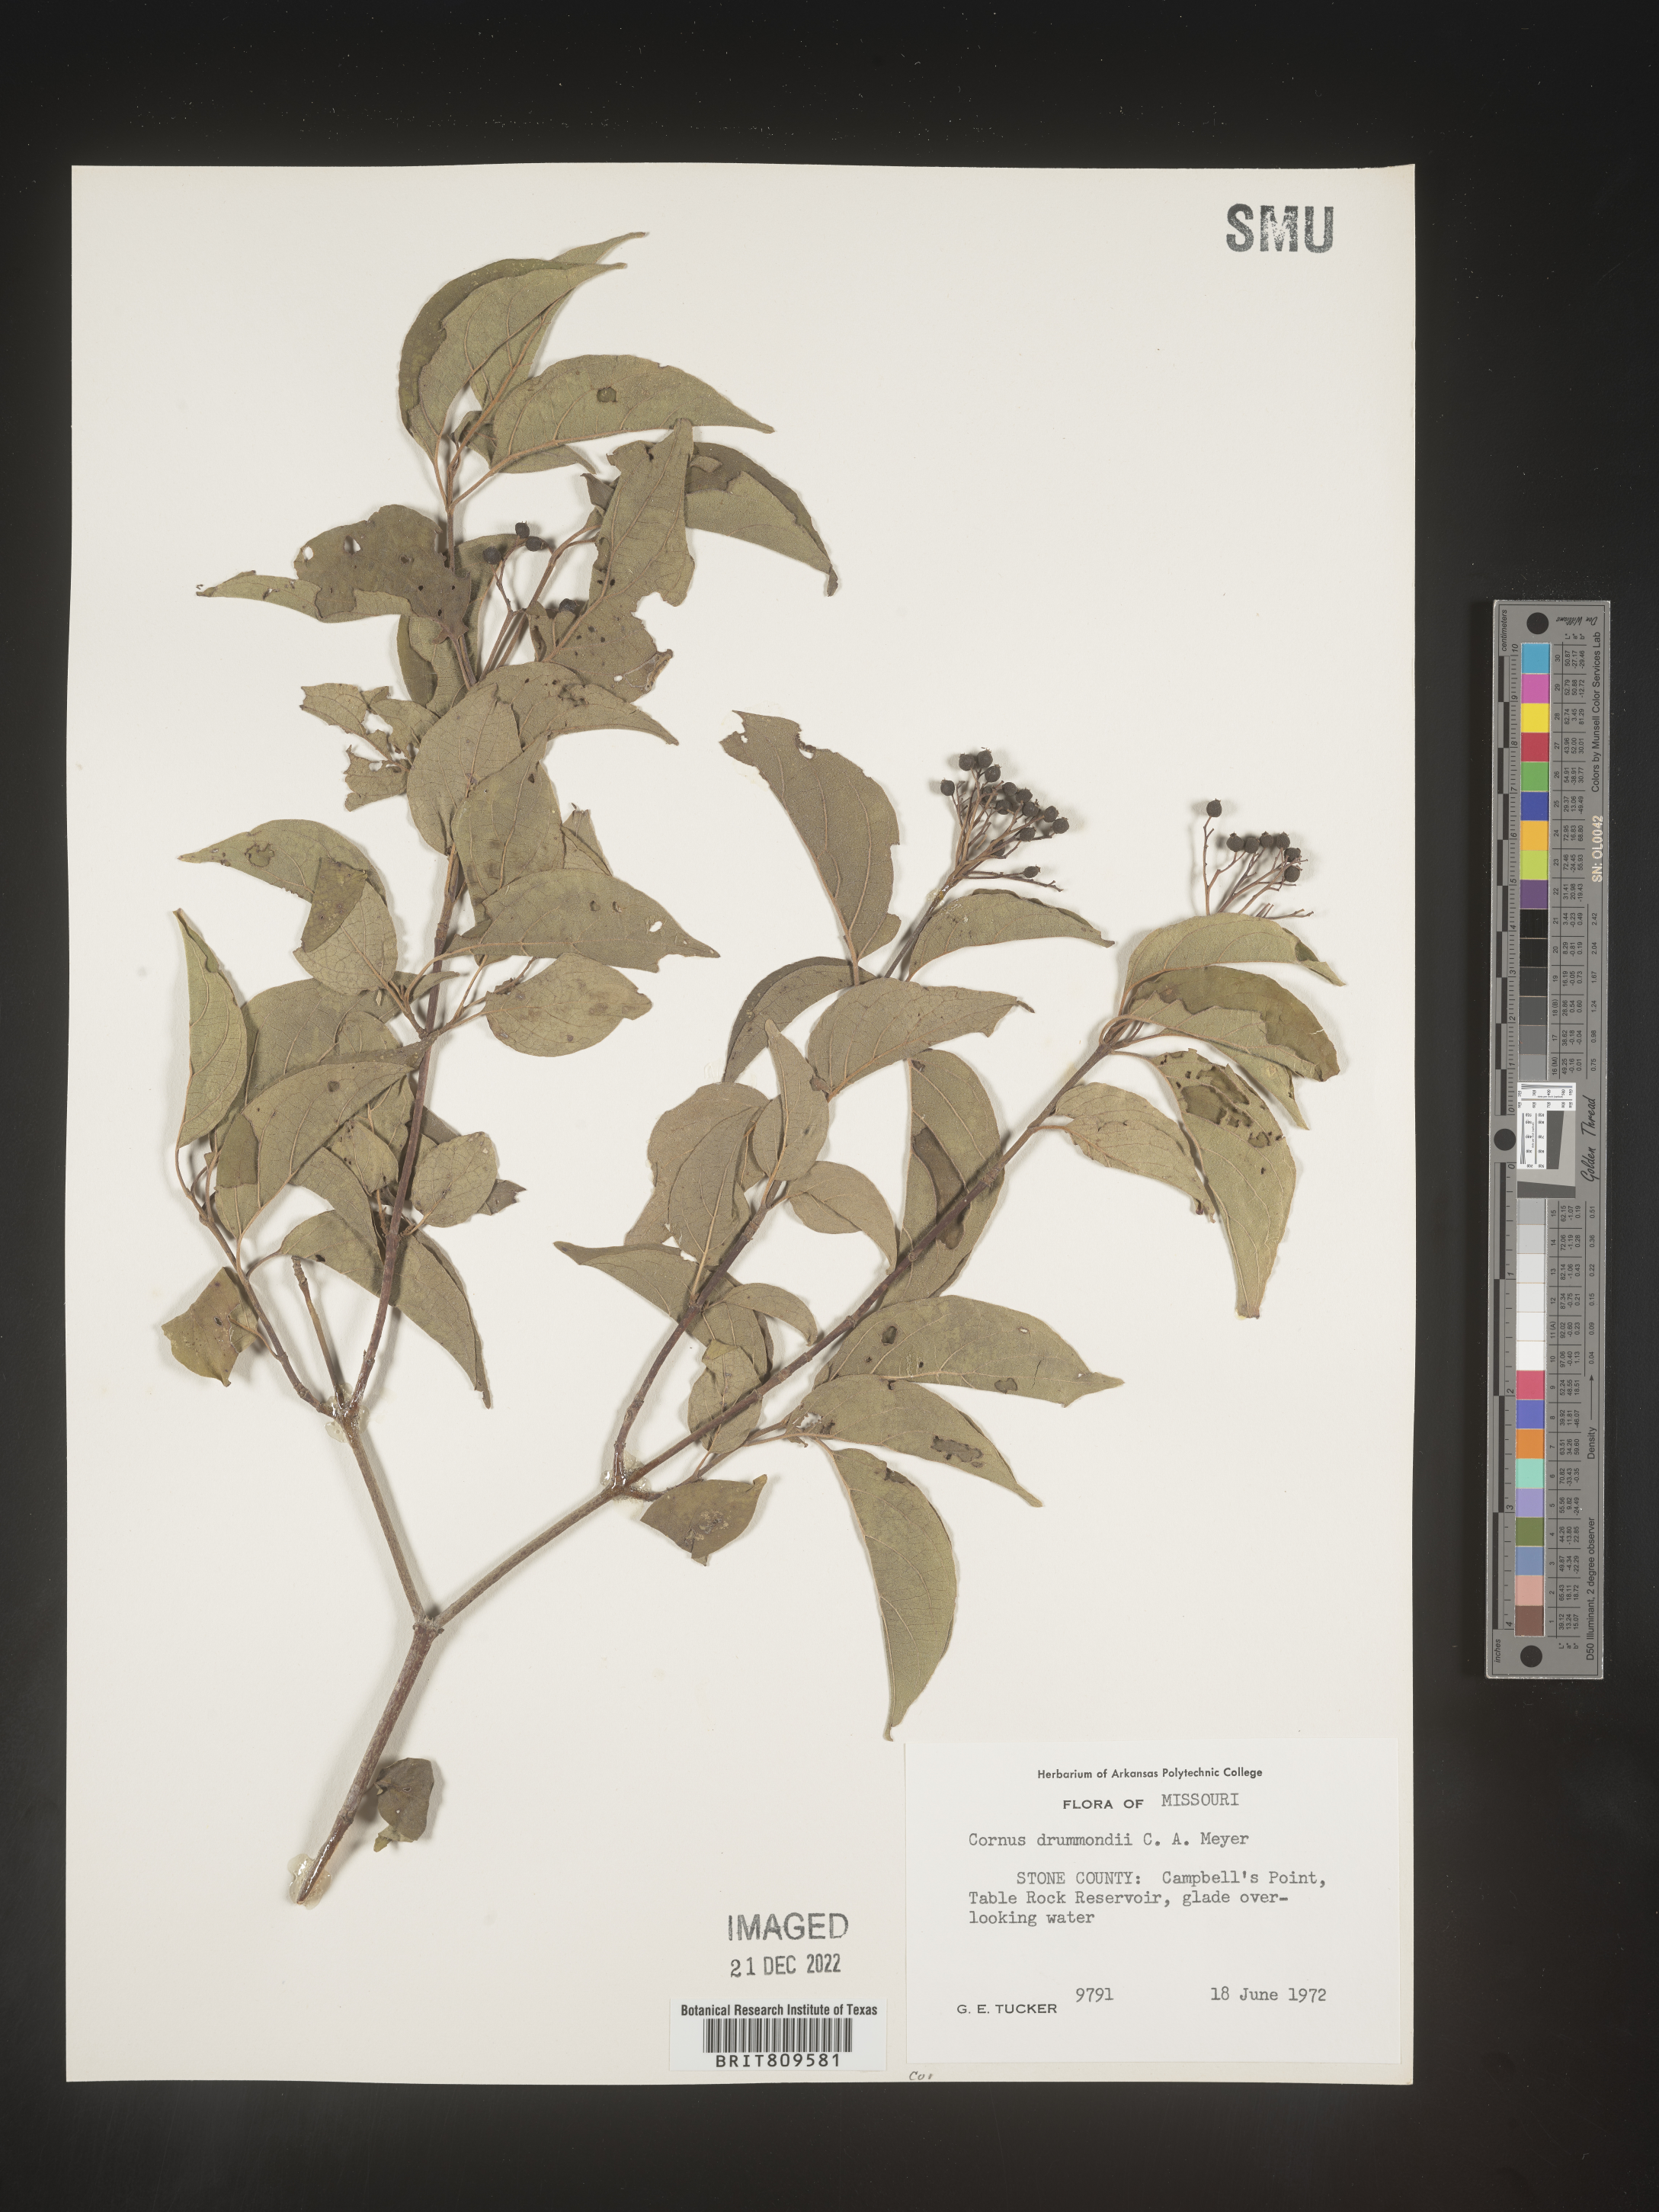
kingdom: Plantae
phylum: Tracheophyta
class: Magnoliopsida
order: Cornales
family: Cornaceae
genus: Cornus
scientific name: Cornus drummondii
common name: Rough-leaf dogwood
